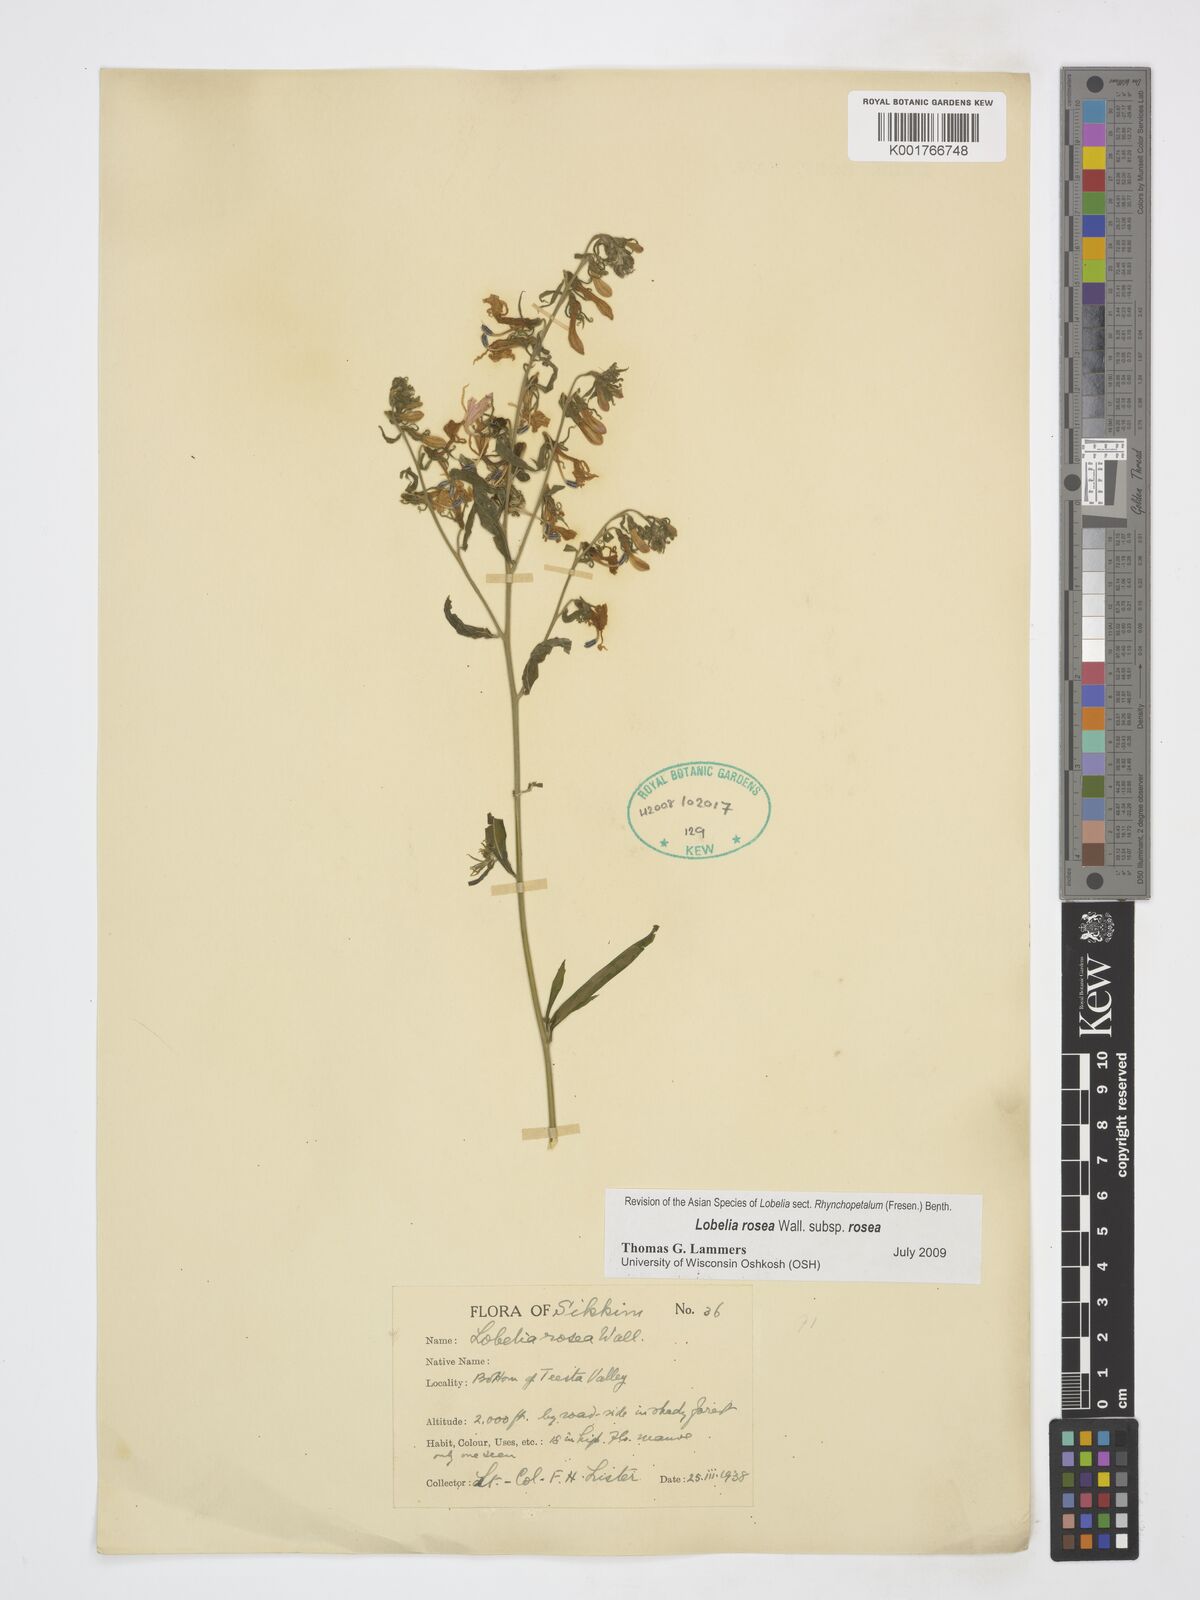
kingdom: Plantae
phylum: Tracheophyta
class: Magnoliopsida
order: Asterales
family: Campanulaceae
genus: Lobelia
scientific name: Lobelia rosea
